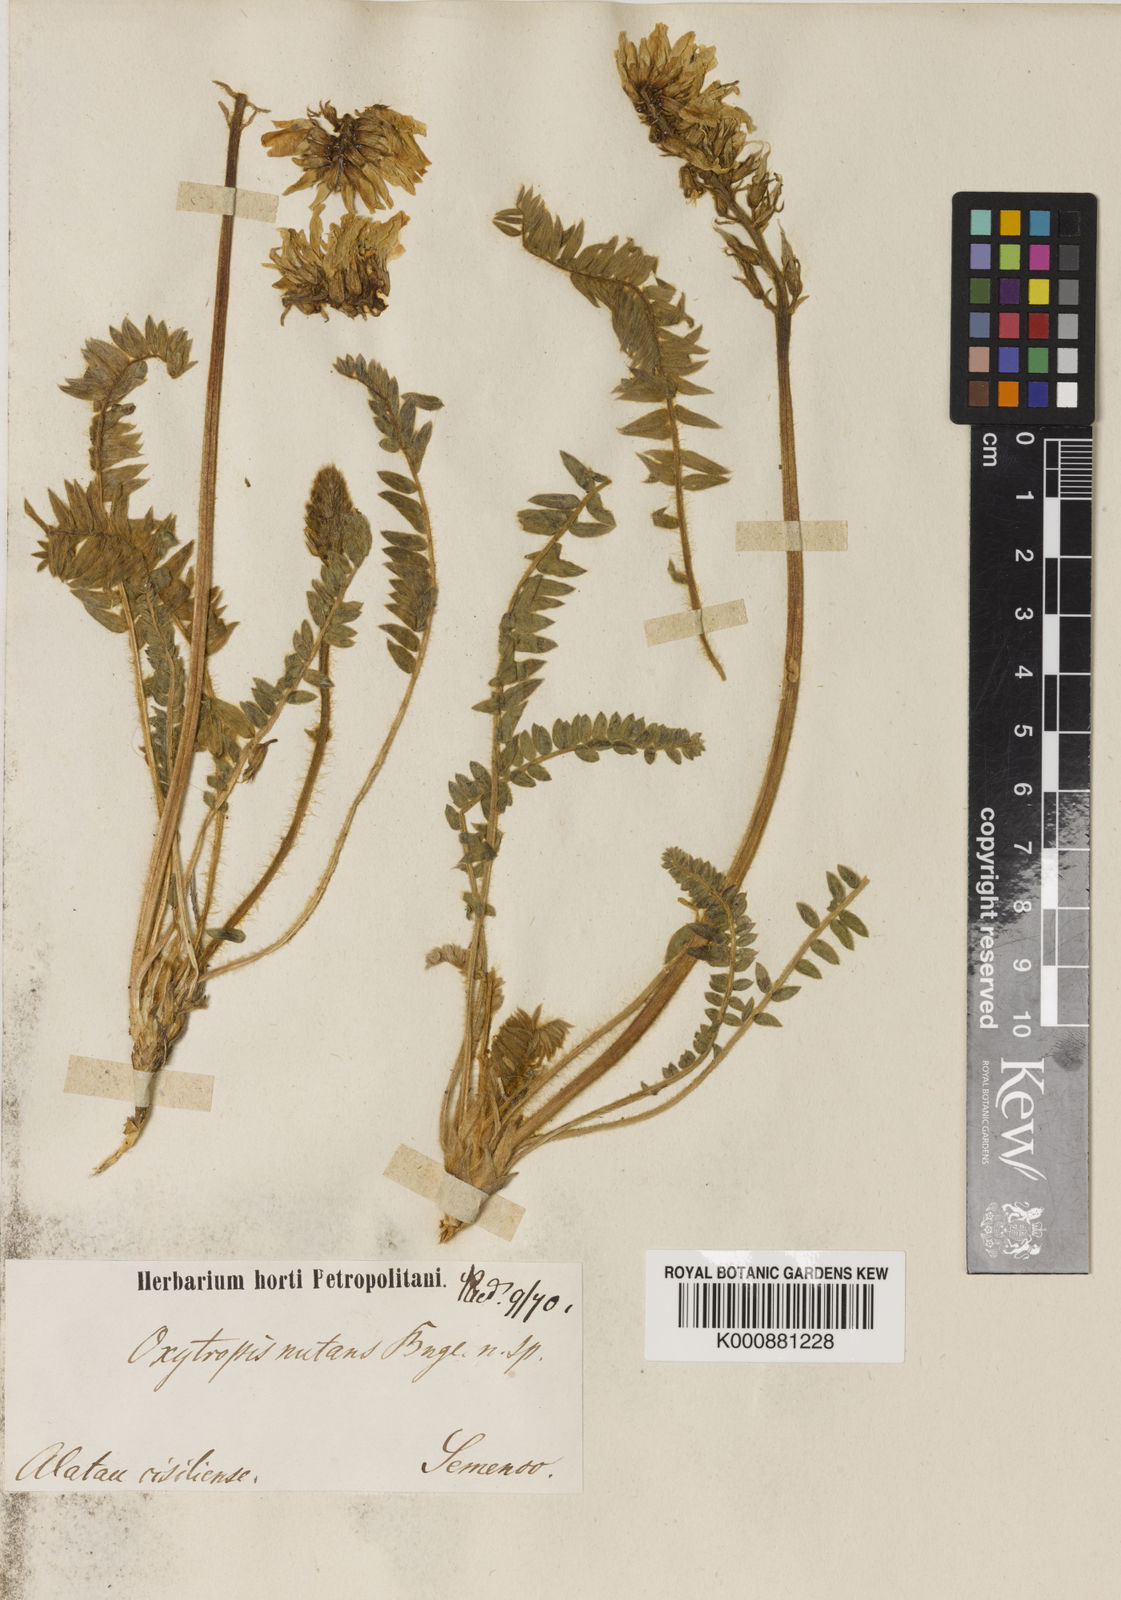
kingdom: Plantae
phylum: Tracheophyta
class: Magnoliopsida
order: Fabales
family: Fabaceae
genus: Oxytropis
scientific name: Oxytropis nutans
